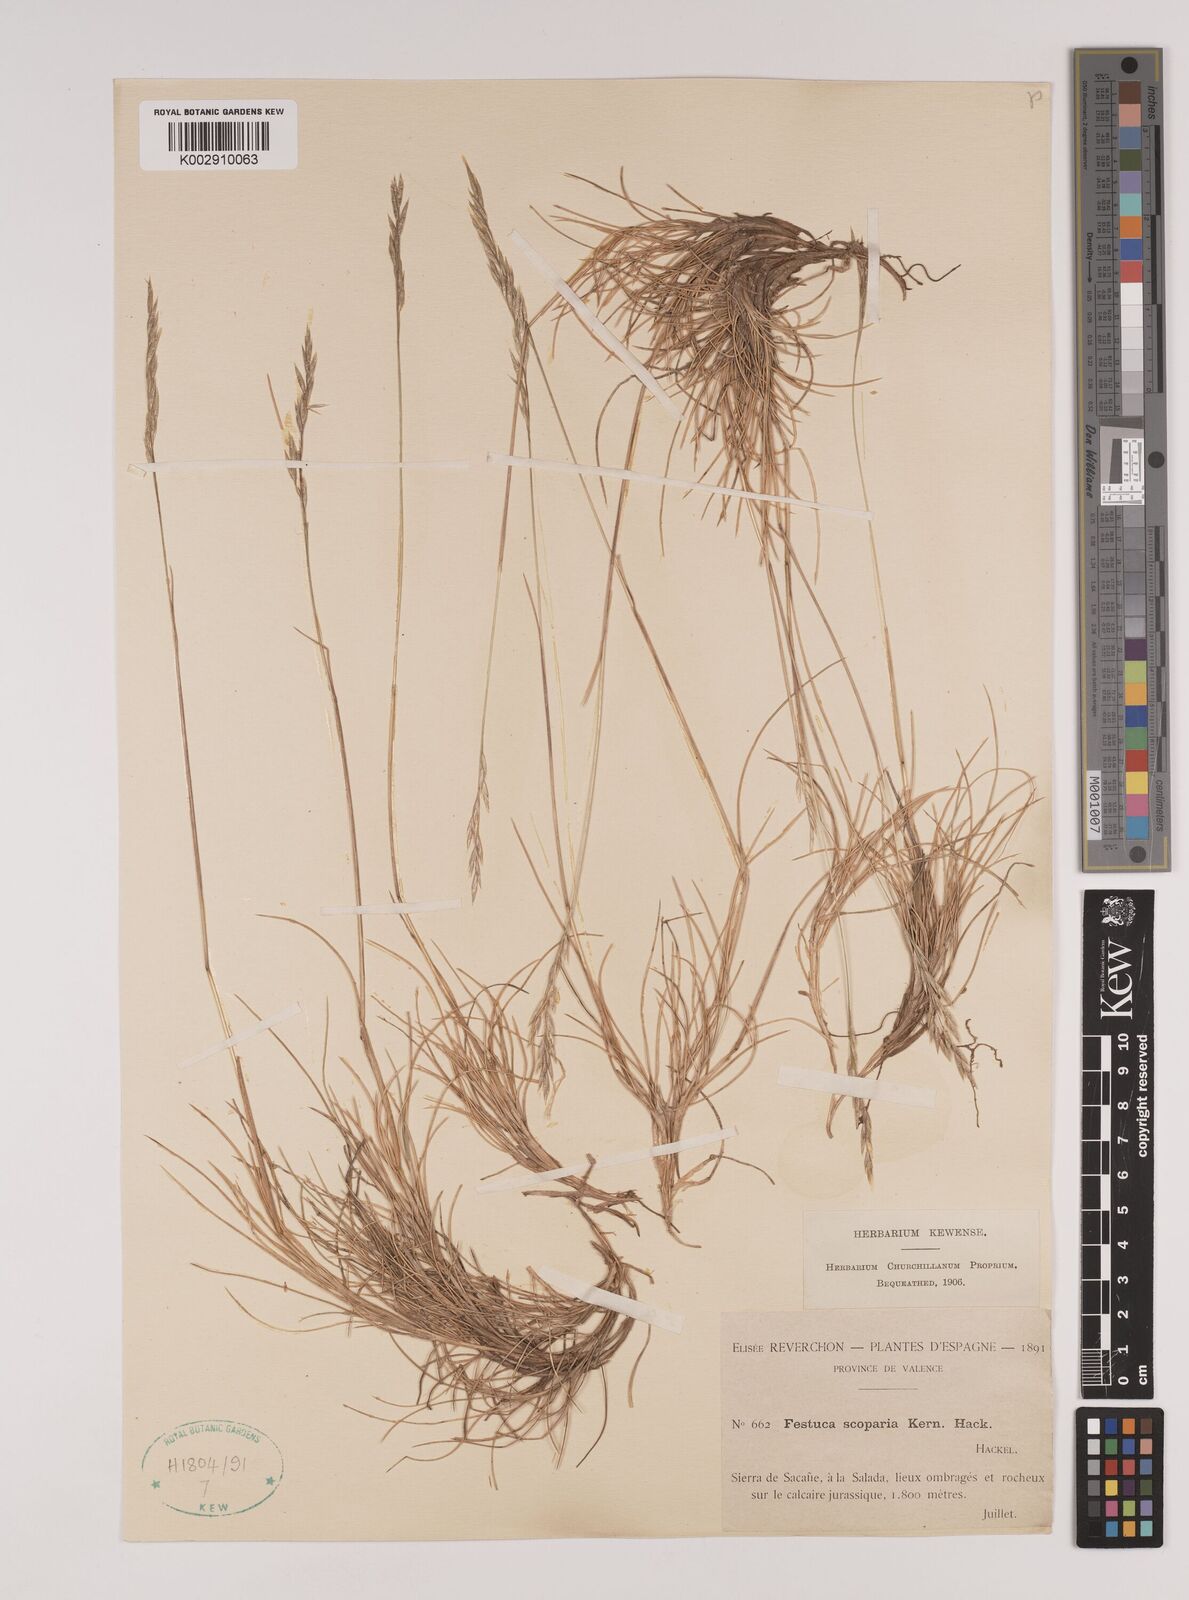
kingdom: Plantae
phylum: Tracheophyta
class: Liliopsida
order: Poales
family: Poaceae
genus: Festuca
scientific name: Festuca gautieri
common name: Spiky fescue
